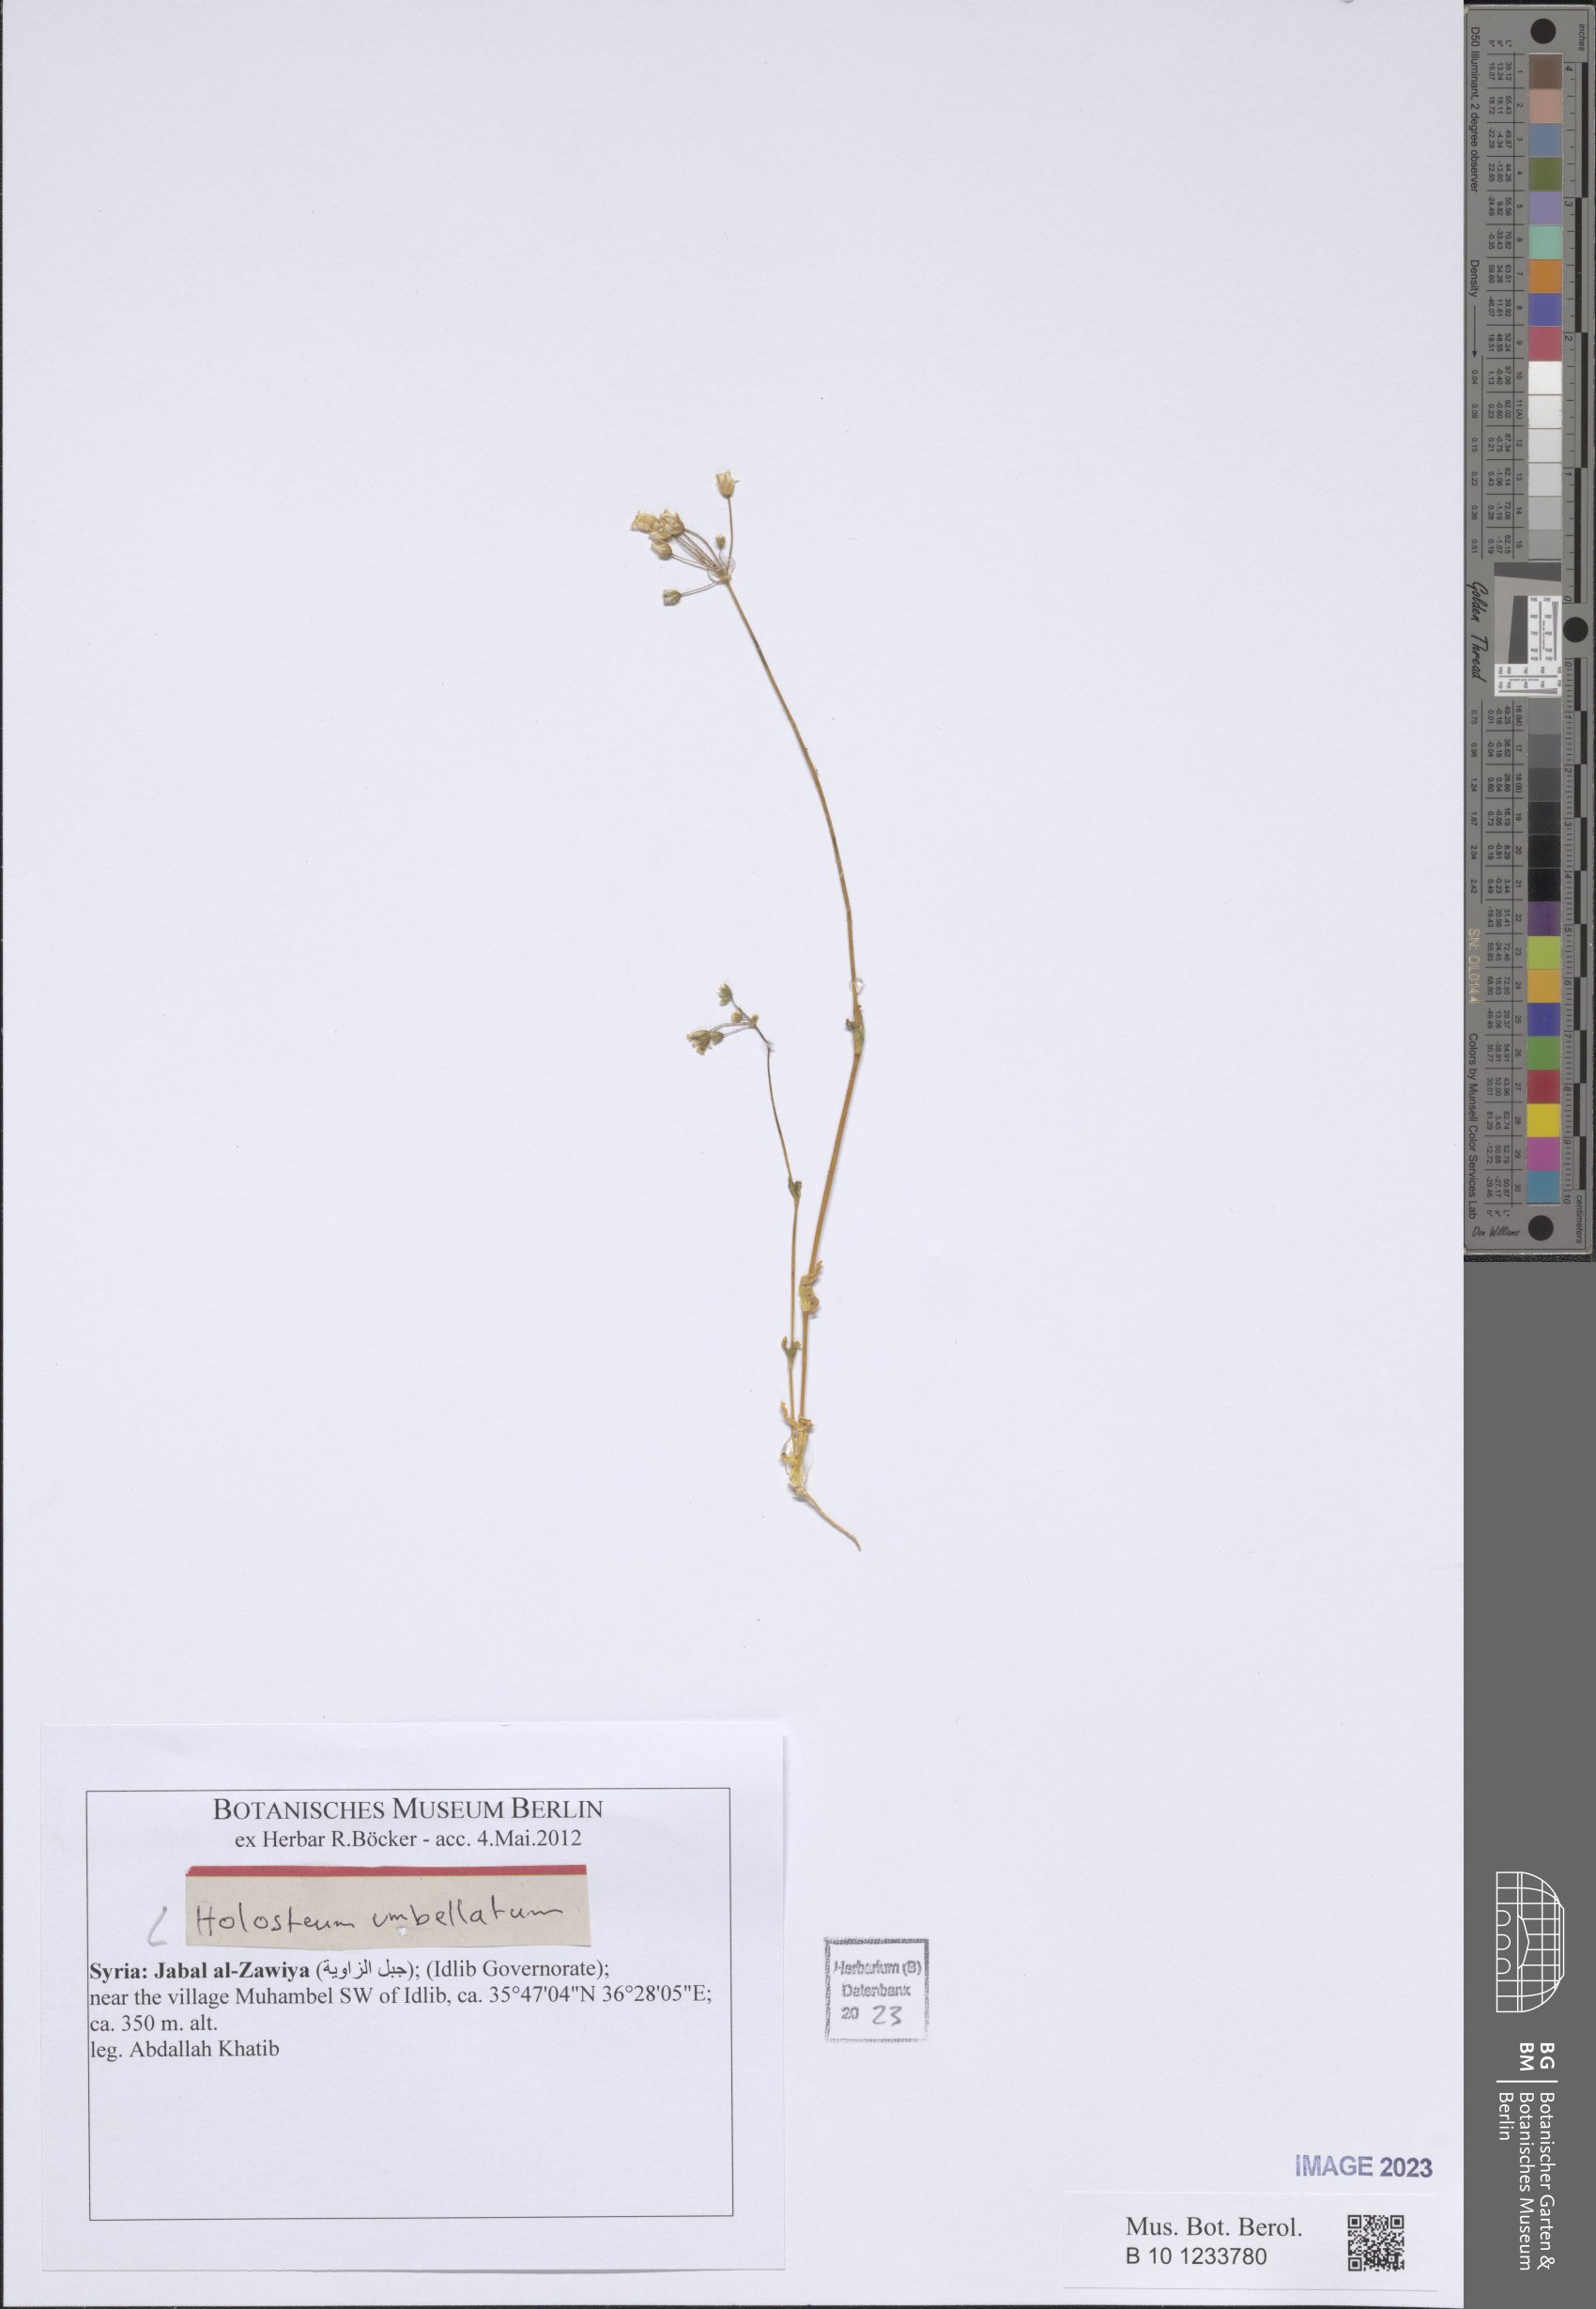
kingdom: Plantae
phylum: Tracheophyta
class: Magnoliopsida
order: Caryophyllales
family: Caryophyllaceae
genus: Holosteum
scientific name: Holosteum umbellatum
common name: Jagged chickweed
